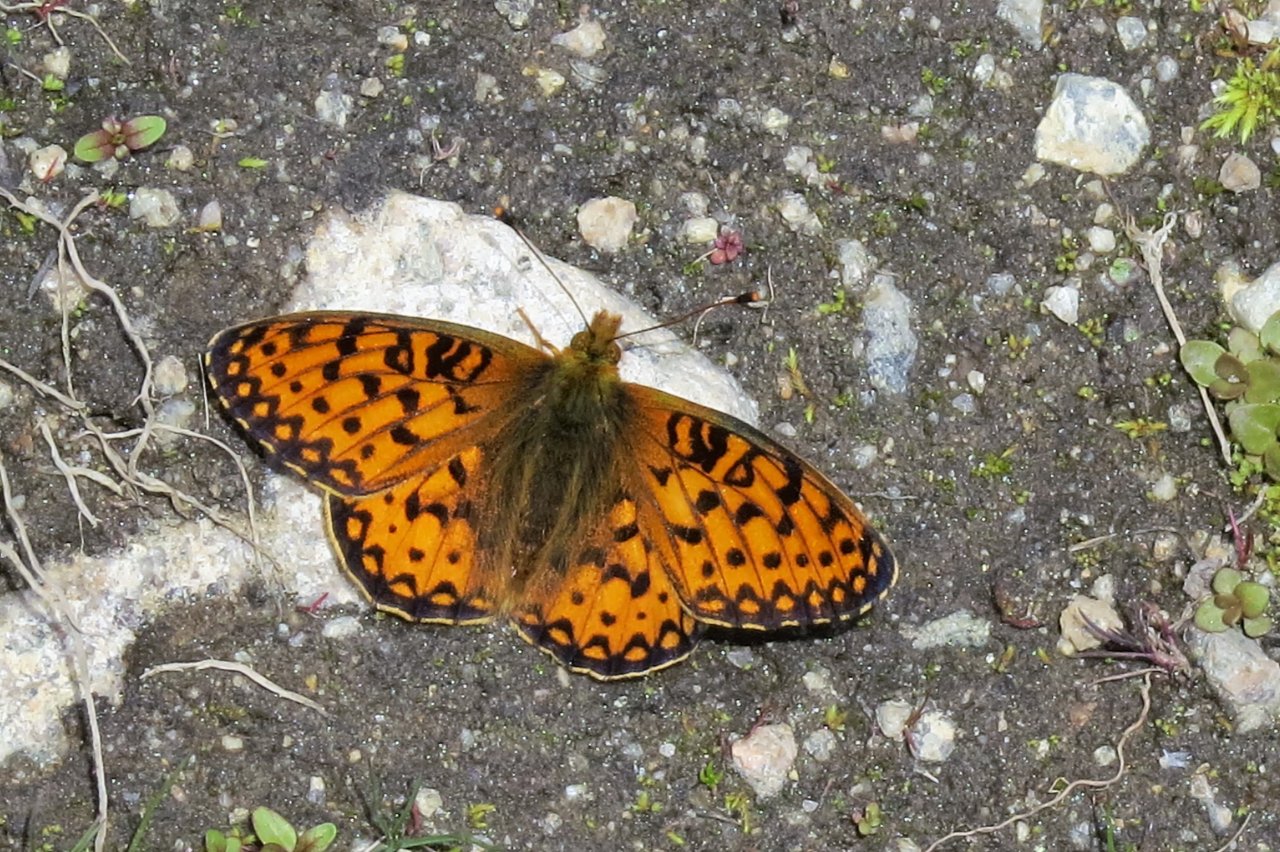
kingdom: Animalia
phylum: Arthropoda
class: Insecta
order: Lepidoptera
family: Nymphalidae
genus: Speyeria
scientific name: Speyeria mormonia
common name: Mormon Fritillary
